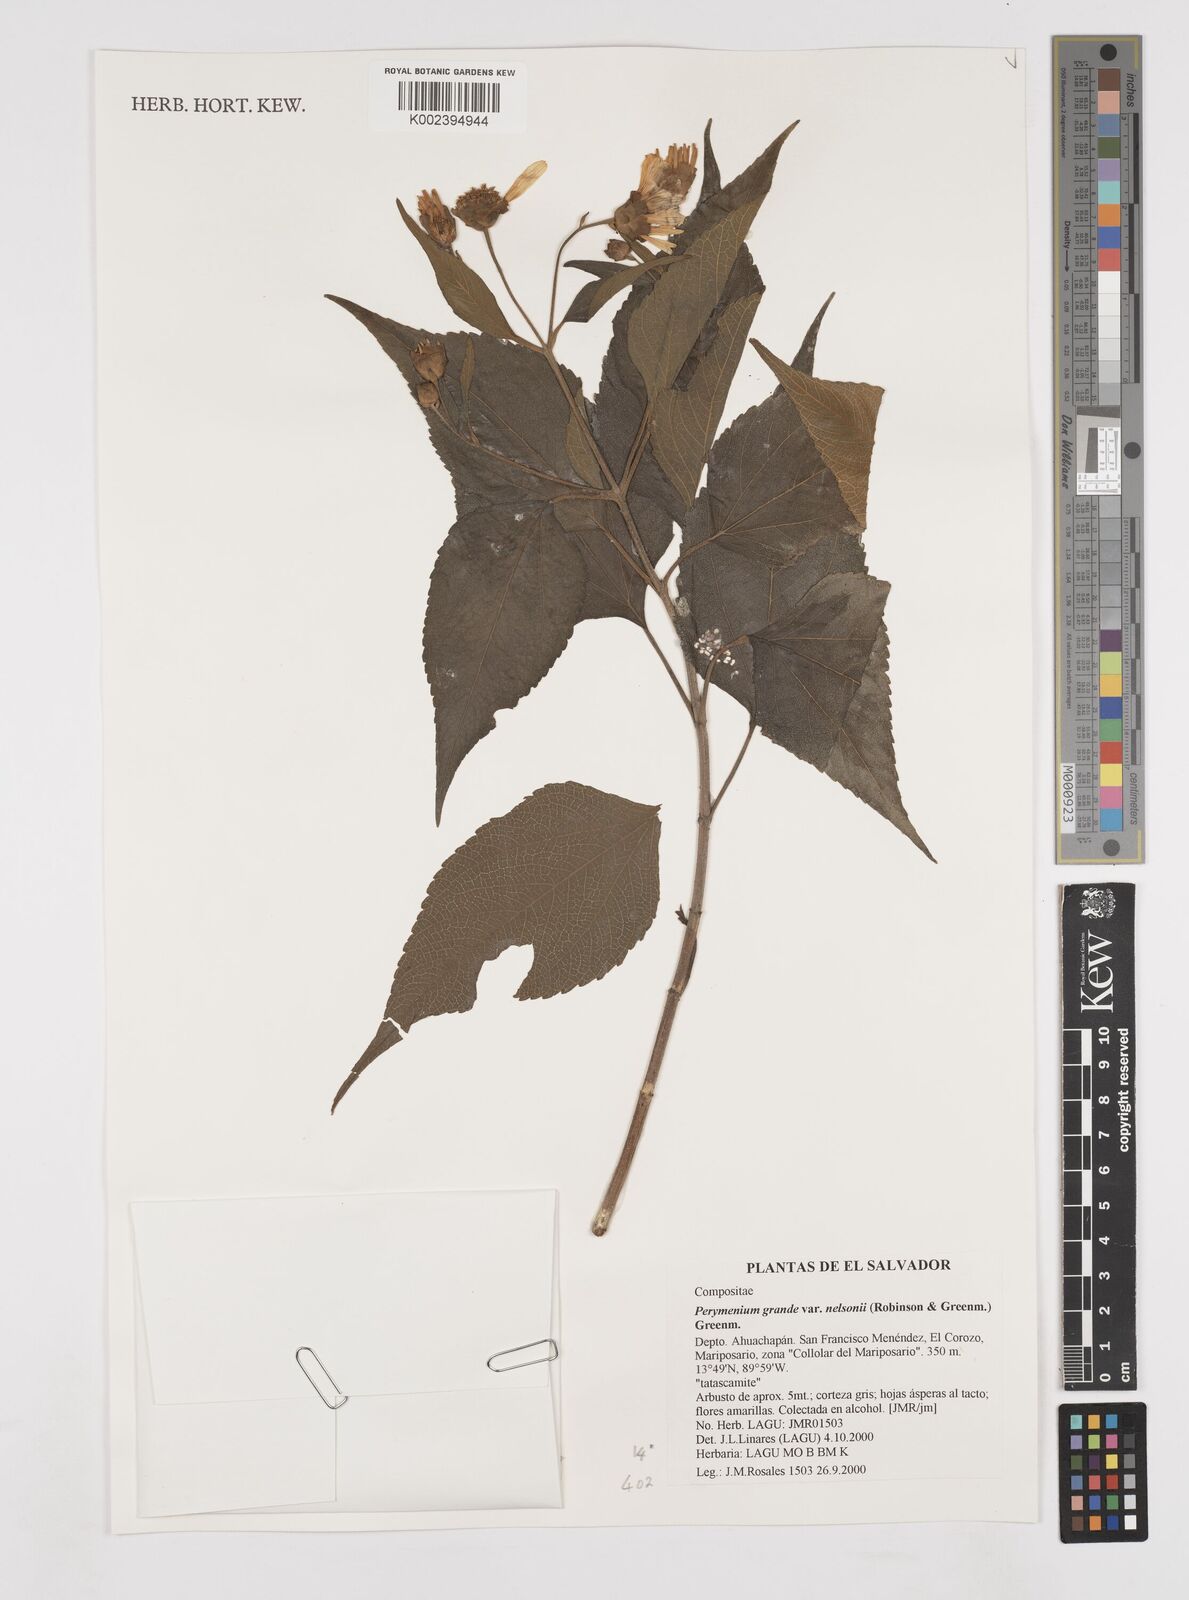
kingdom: Plantae
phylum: Tracheophyta
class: Magnoliopsida
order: Asterales
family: Asteraceae
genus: Perymenium
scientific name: Perymenium grande
